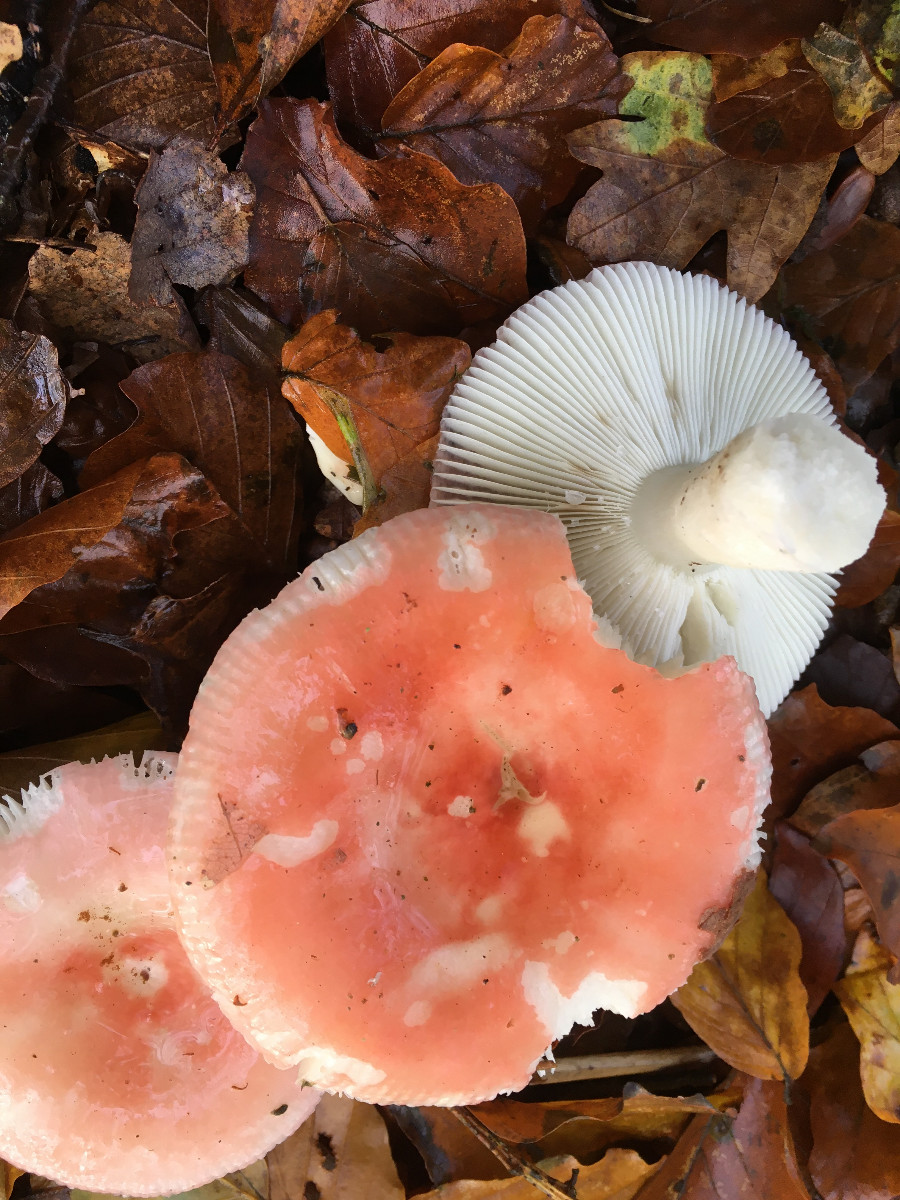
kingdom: Fungi
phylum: Basidiomycota
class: Agaricomycetes
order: Russulales
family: Russulaceae
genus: Russula
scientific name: Russula nobilis
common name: lille gift-skørhat
